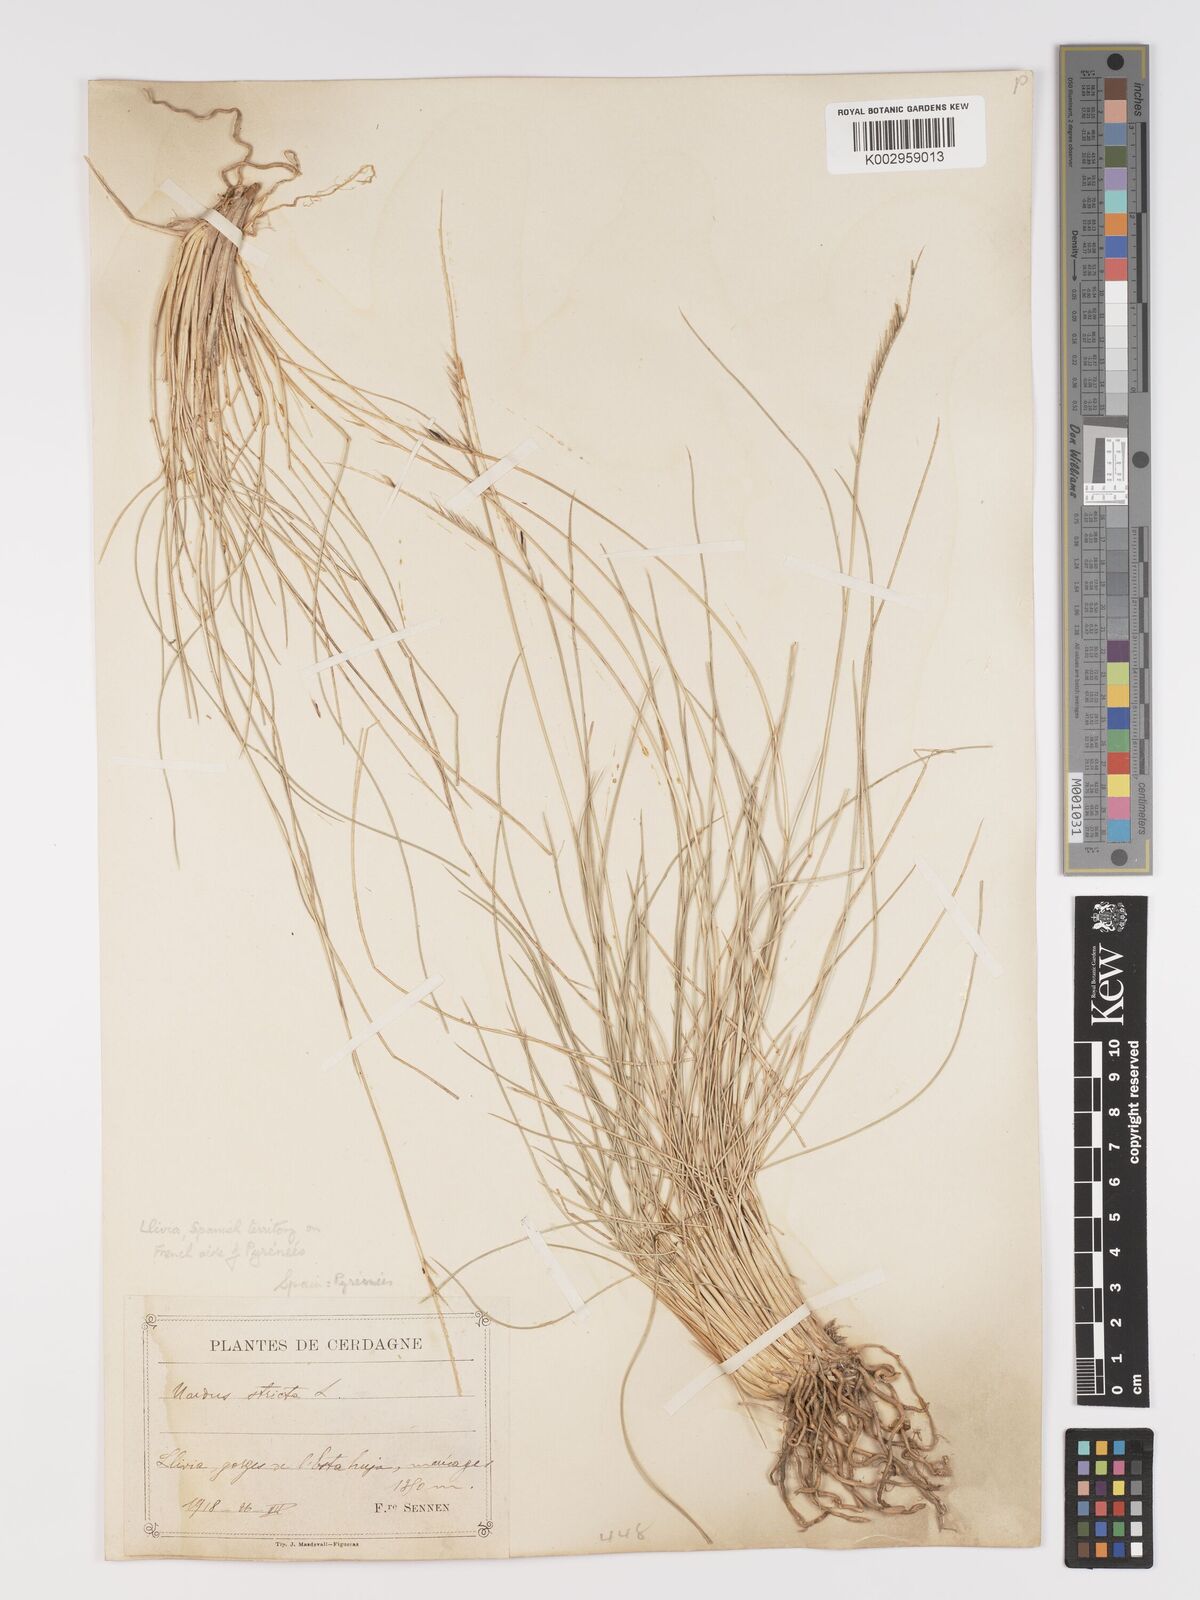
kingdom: Plantae
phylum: Tracheophyta
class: Liliopsida
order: Poales
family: Poaceae
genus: Nardus
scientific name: Nardus stricta
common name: Mat-grass
